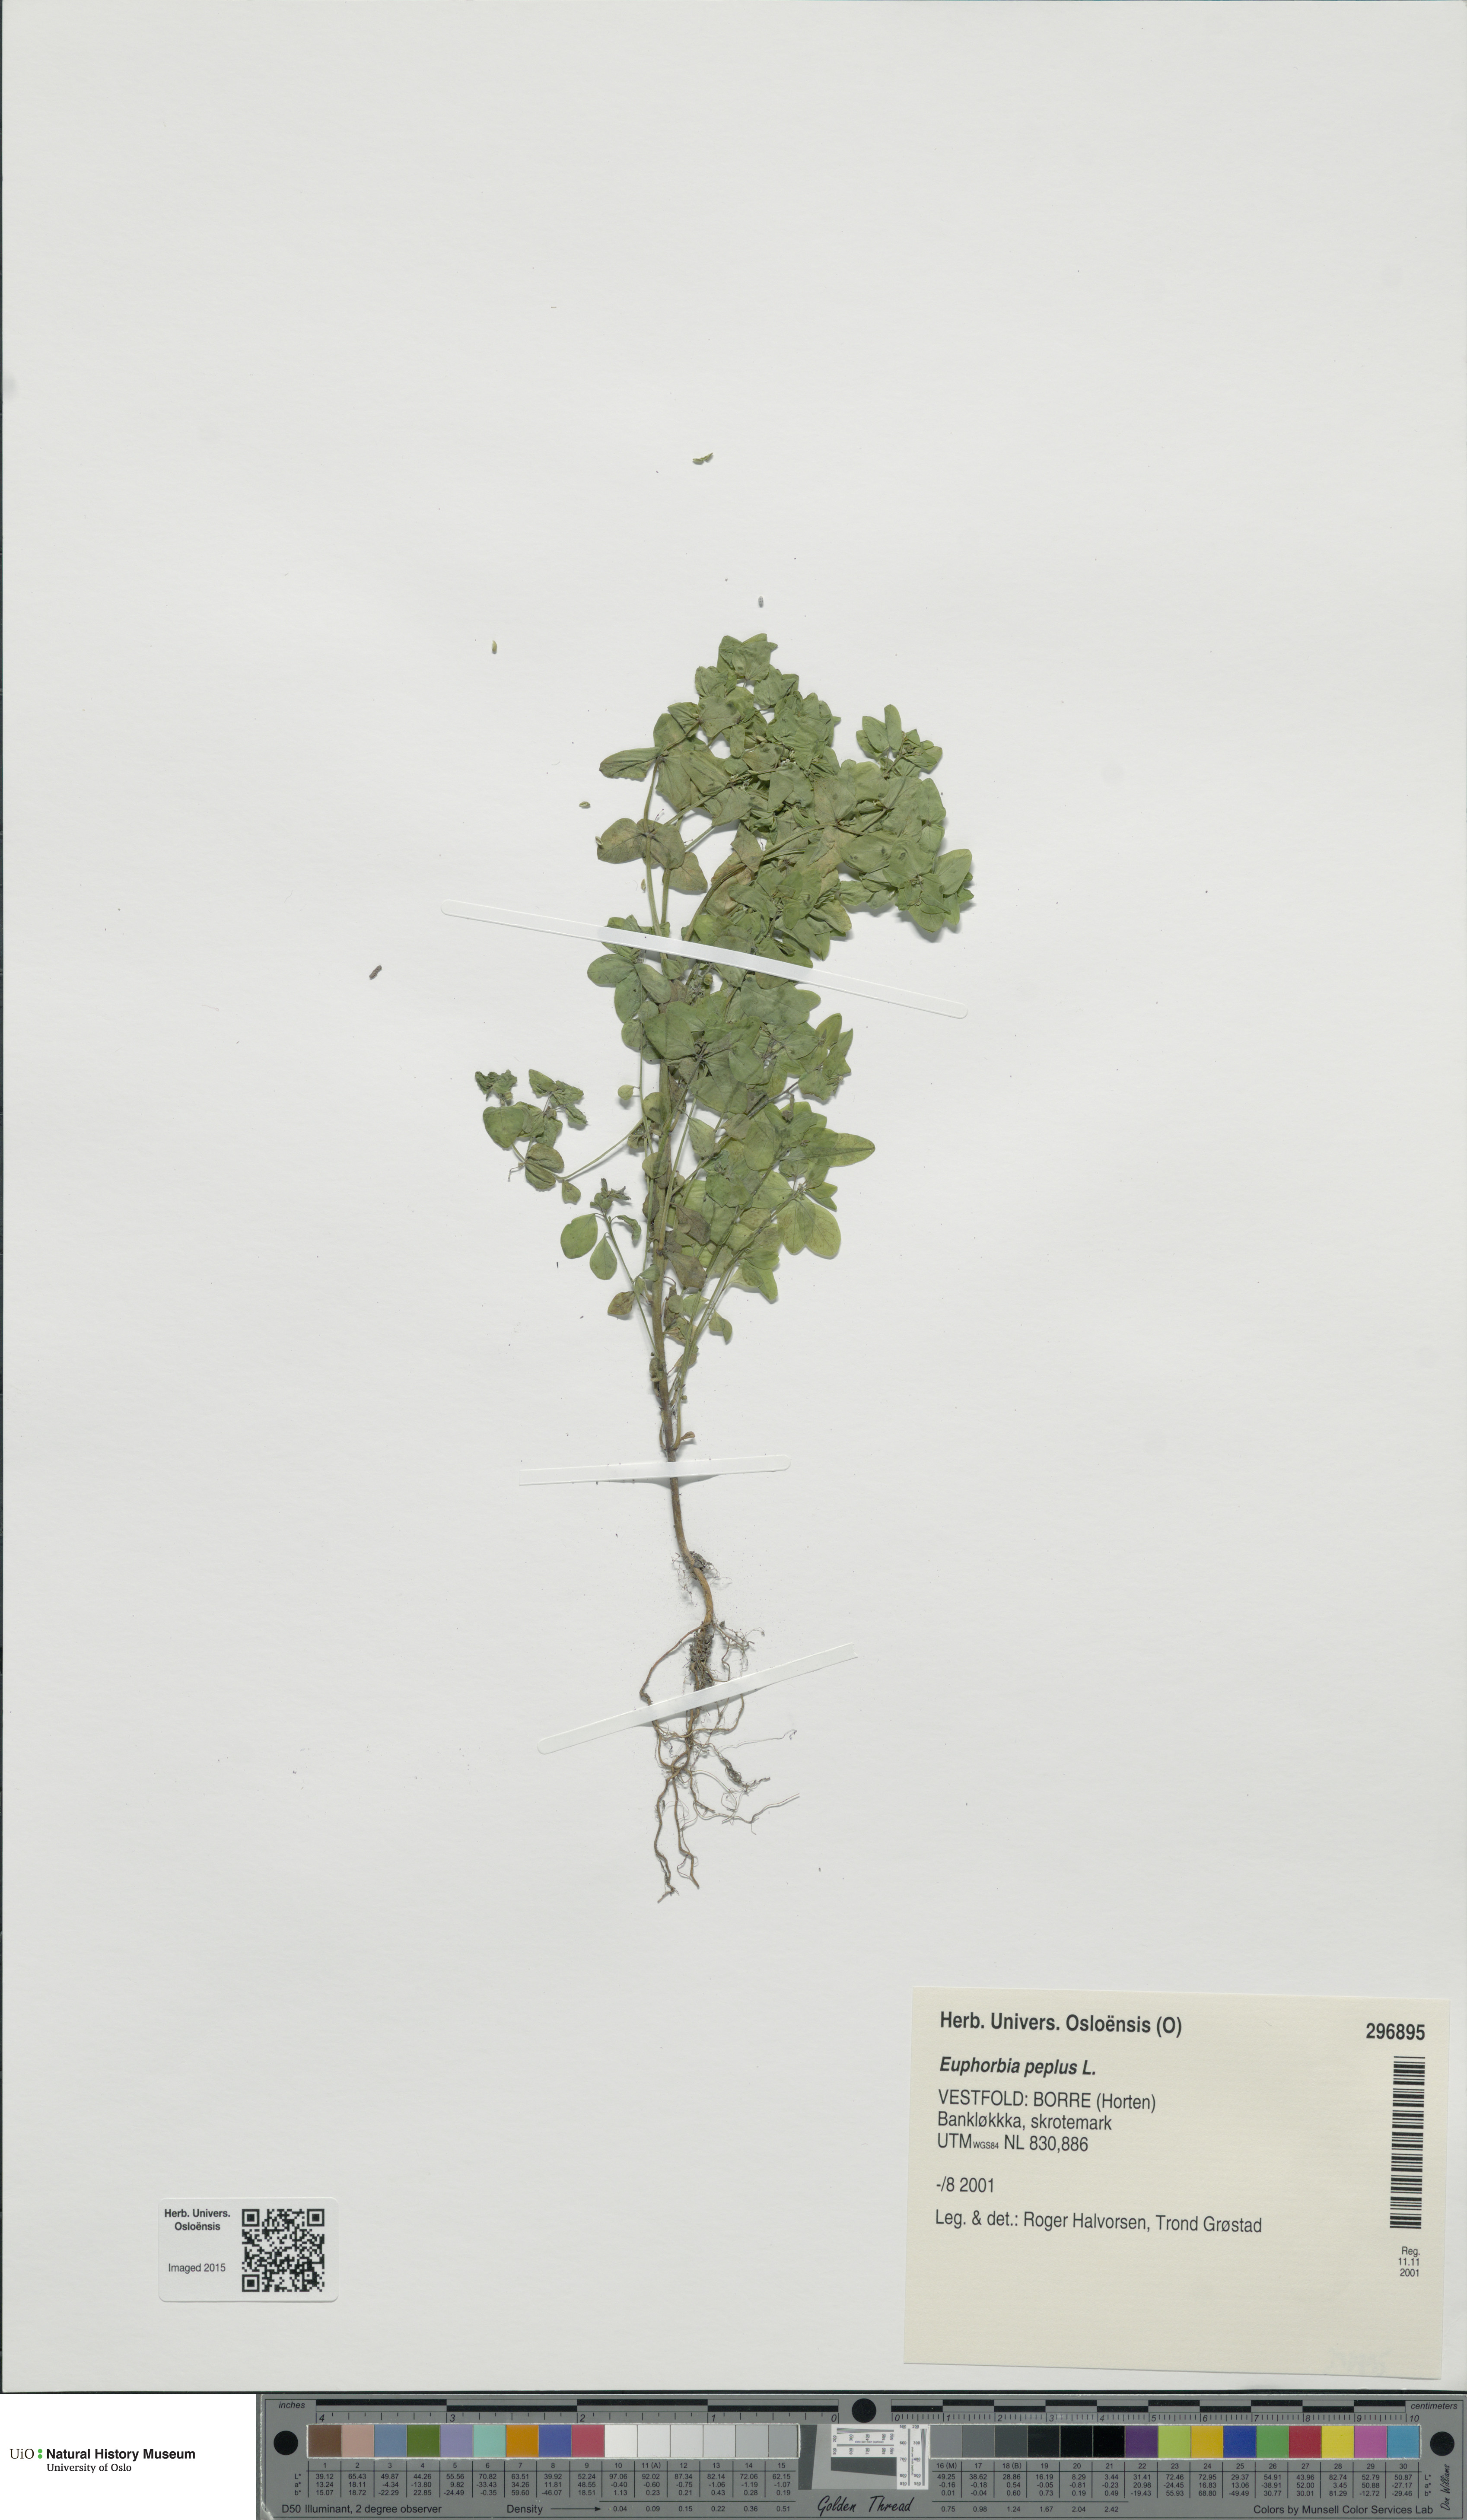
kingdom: Plantae
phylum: Tracheophyta
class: Magnoliopsida
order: Malpighiales
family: Euphorbiaceae
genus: Euphorbia
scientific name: Euphorbia peplus
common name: Petty spurge
